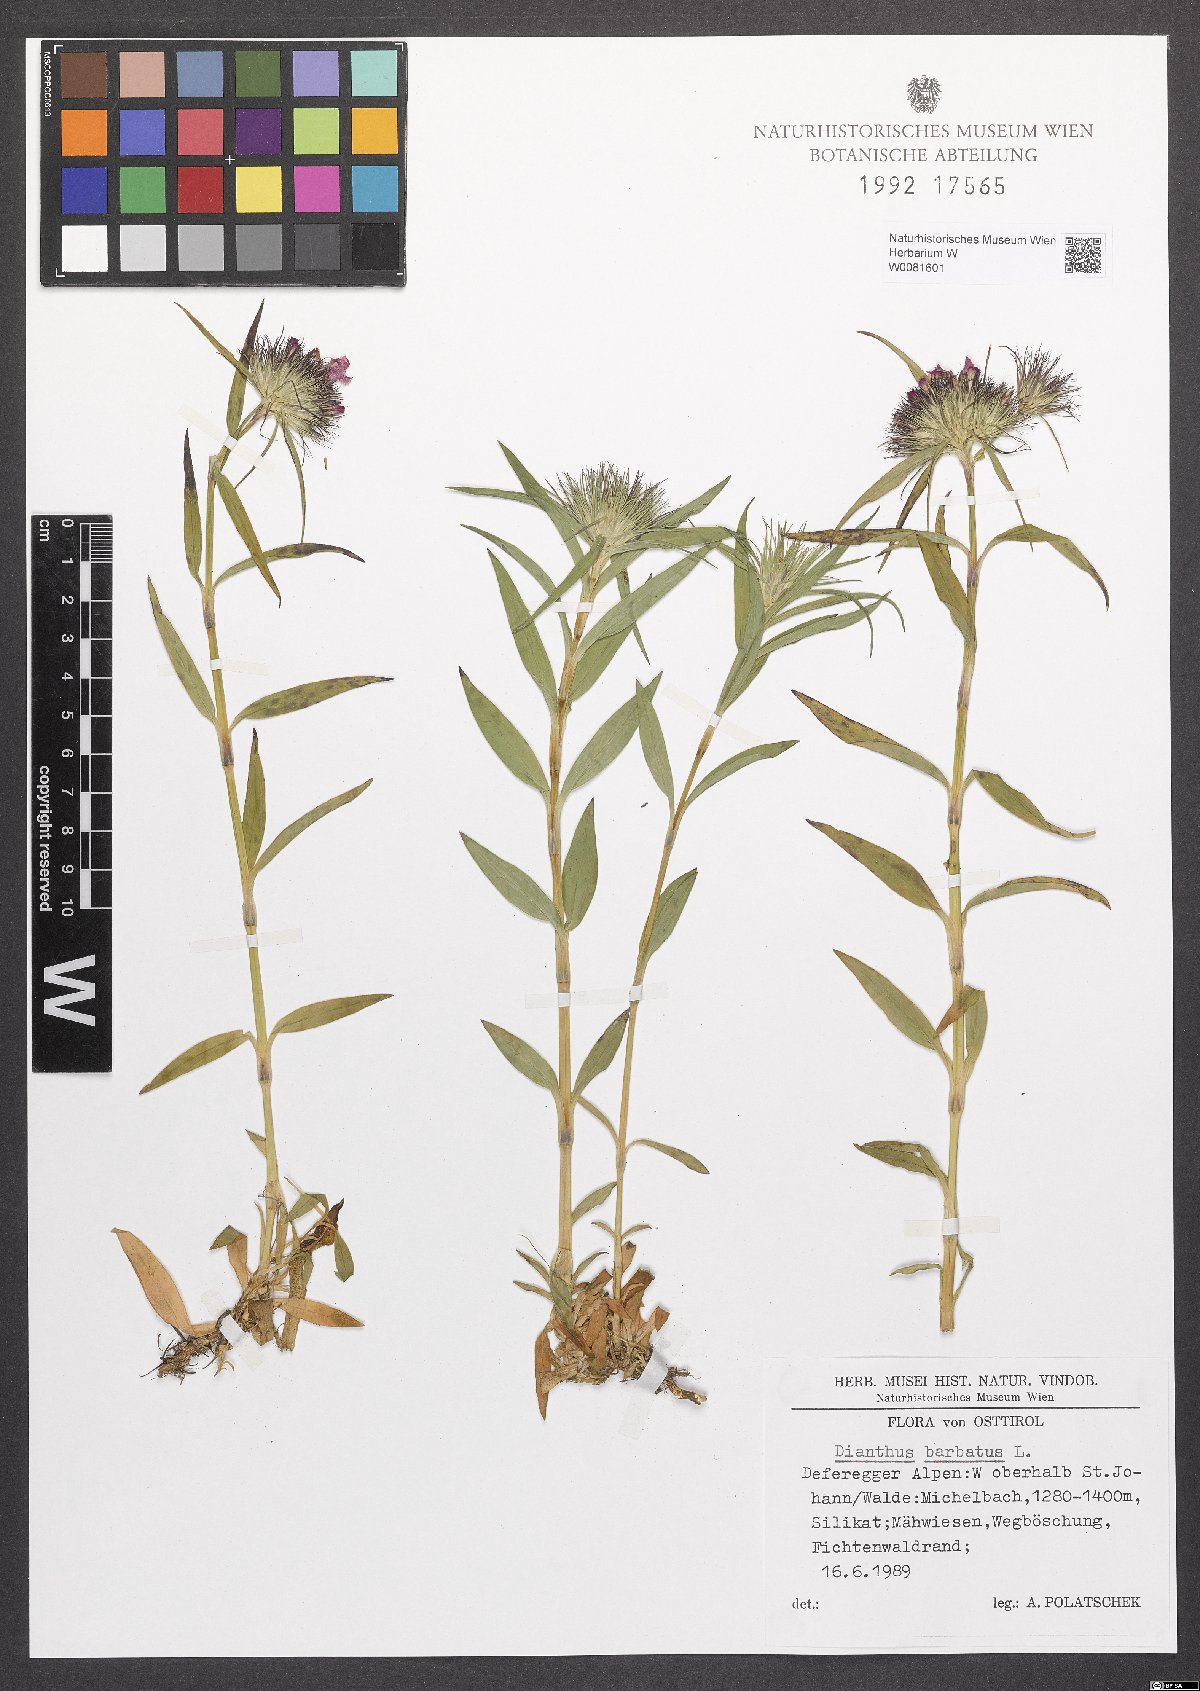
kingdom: Plantae
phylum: Tracheophyta
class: Magnoliopsida
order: Caryophyllales
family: Caryophyllaceae
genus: Dianthus
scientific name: Dianthus barbatus
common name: Sweet-william
